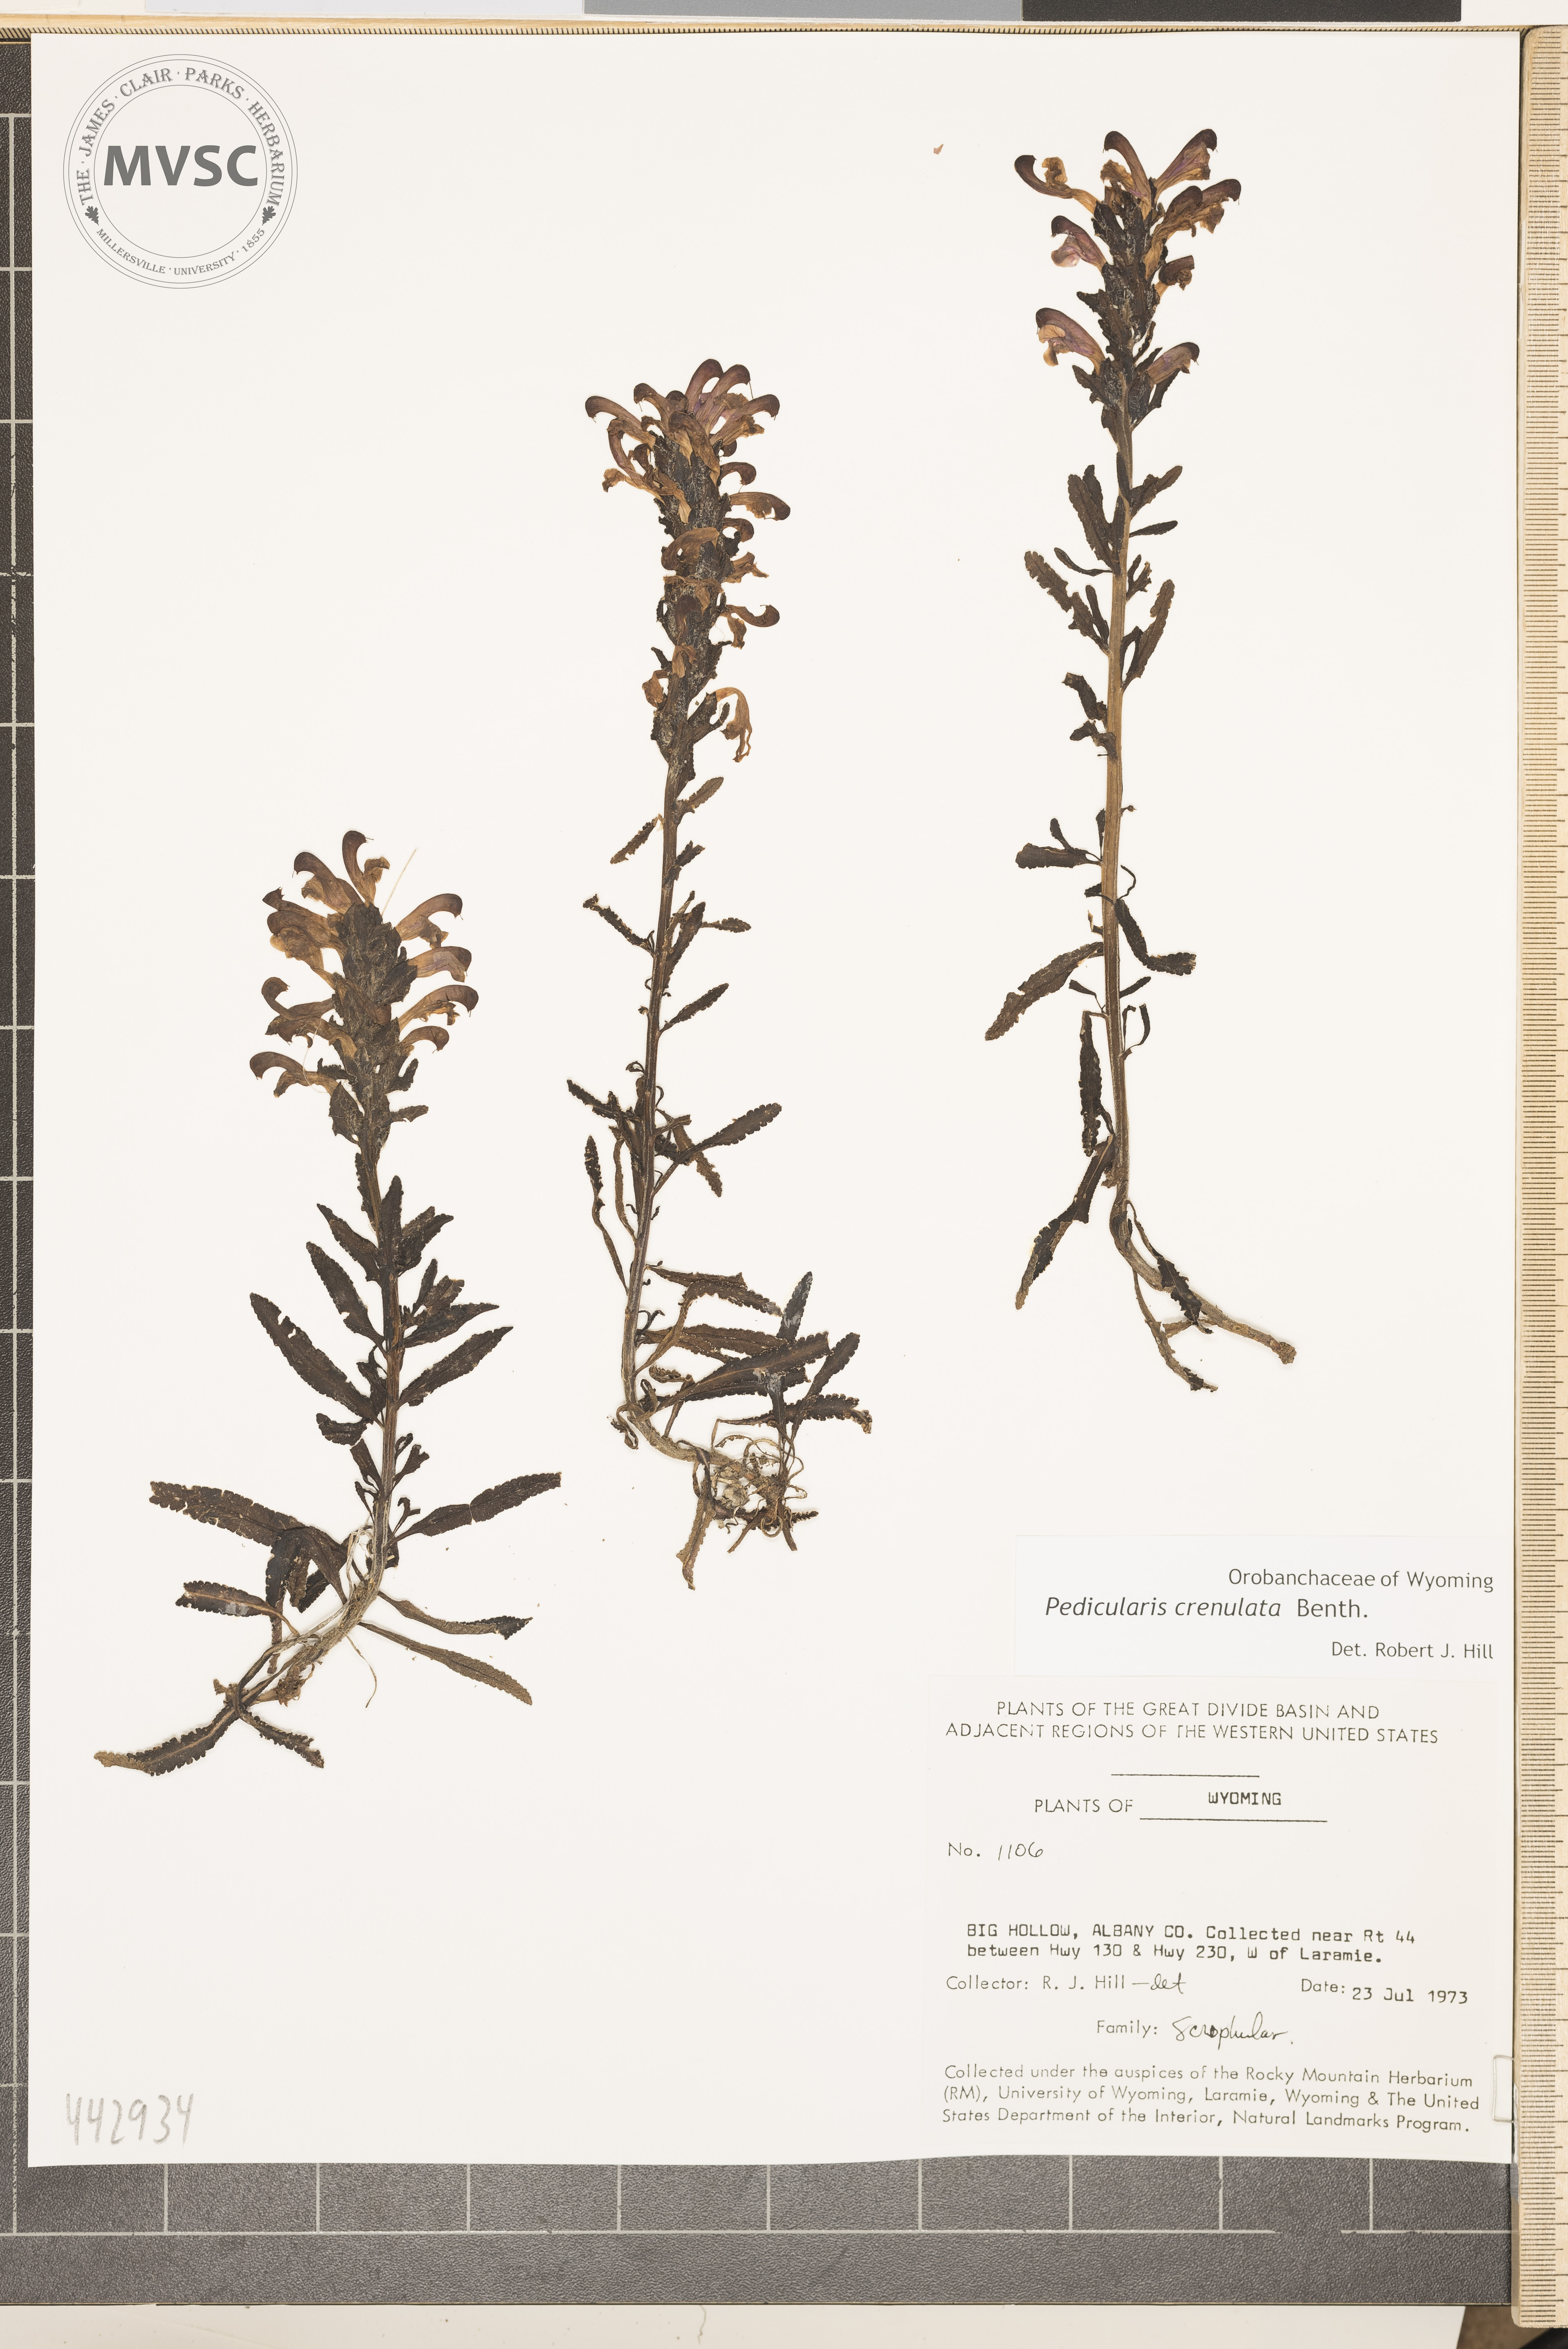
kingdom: Plantae
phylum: Tracheophyta
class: Magnoliopsida
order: Lamiales
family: Orobanchaceae
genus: Pedicularis
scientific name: Pedicularis crenulata
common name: Meadow lousewort
